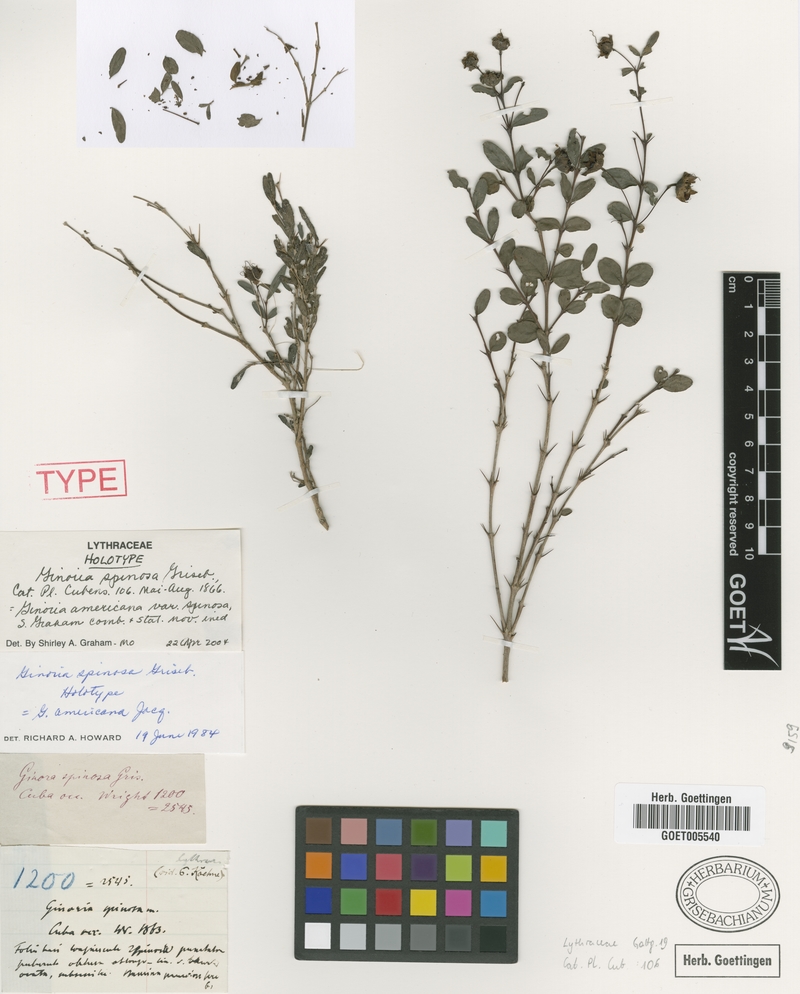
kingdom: Plantae
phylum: Tracheophyta
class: Magnoliopsida
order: Myrtales
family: Lythraceae
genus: Ginoria
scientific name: Ginoria americana
